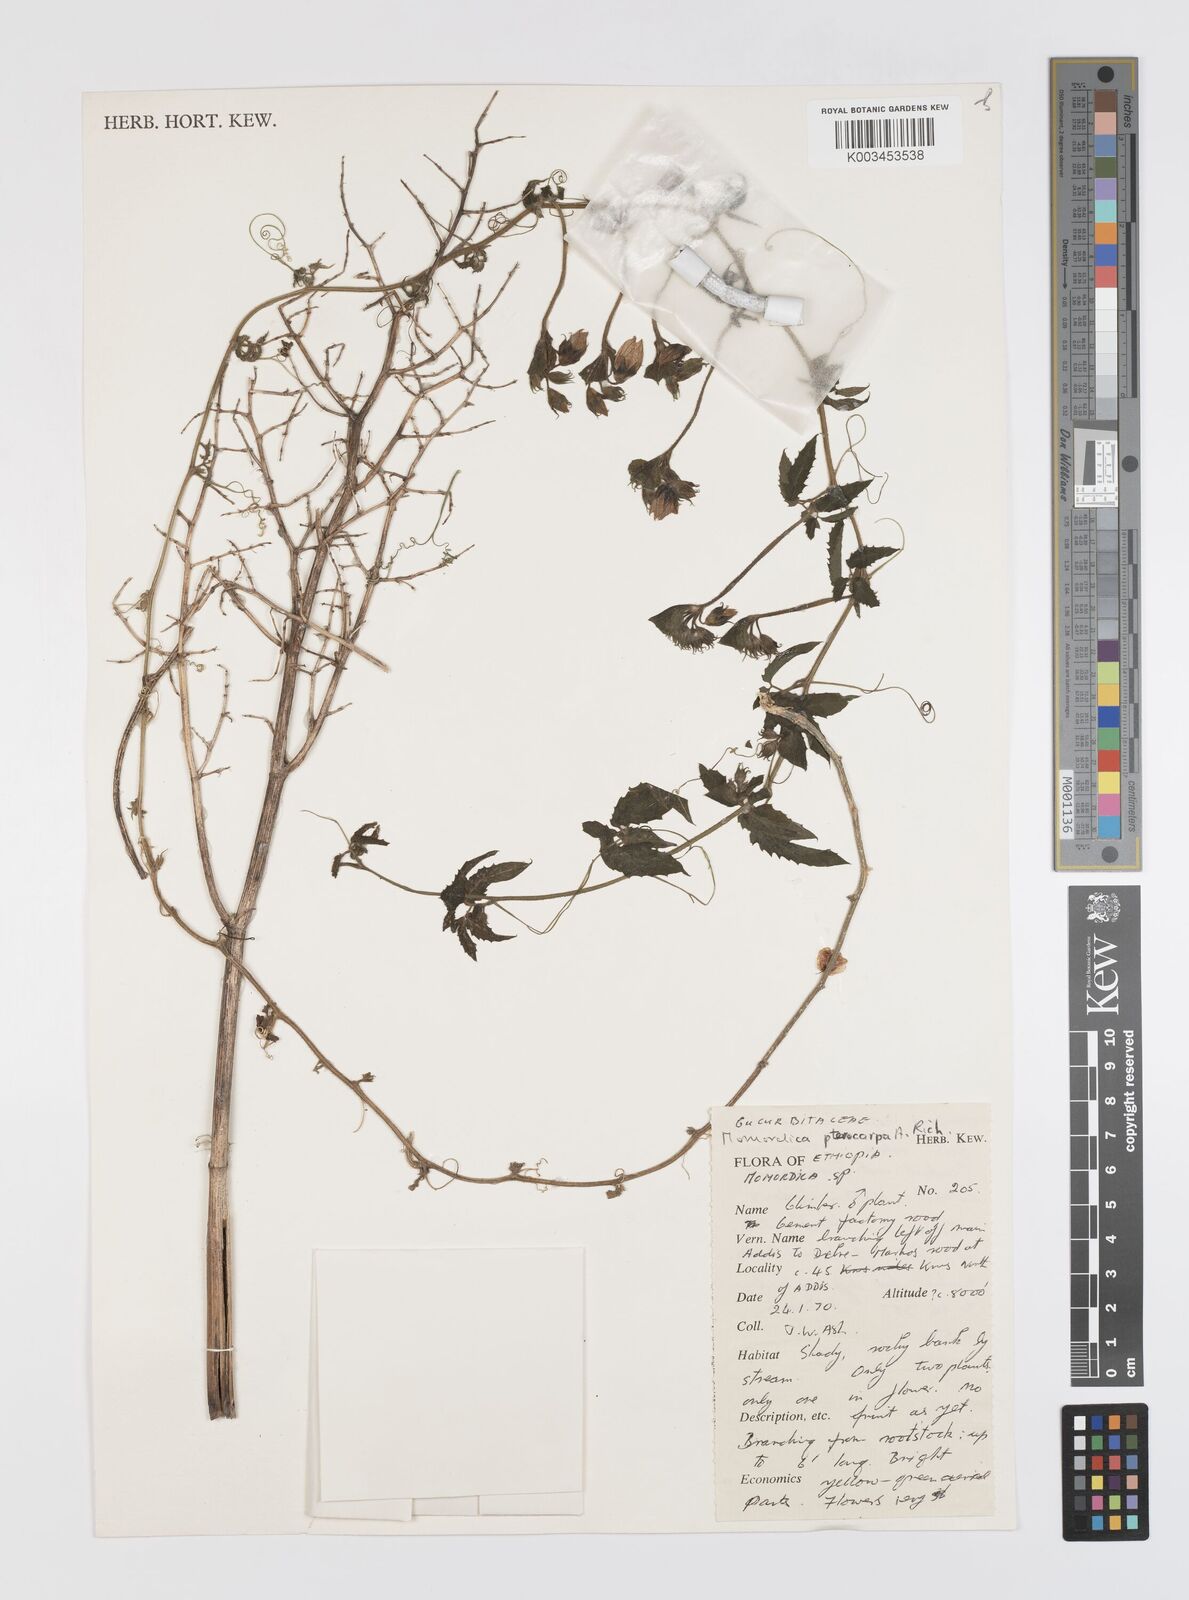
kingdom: Plantae
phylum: Tracheophyta
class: Magnoliopsida
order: Cucurbitales
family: Cucurbitaceae
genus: Momordica
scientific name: Momordica pterocarpa
